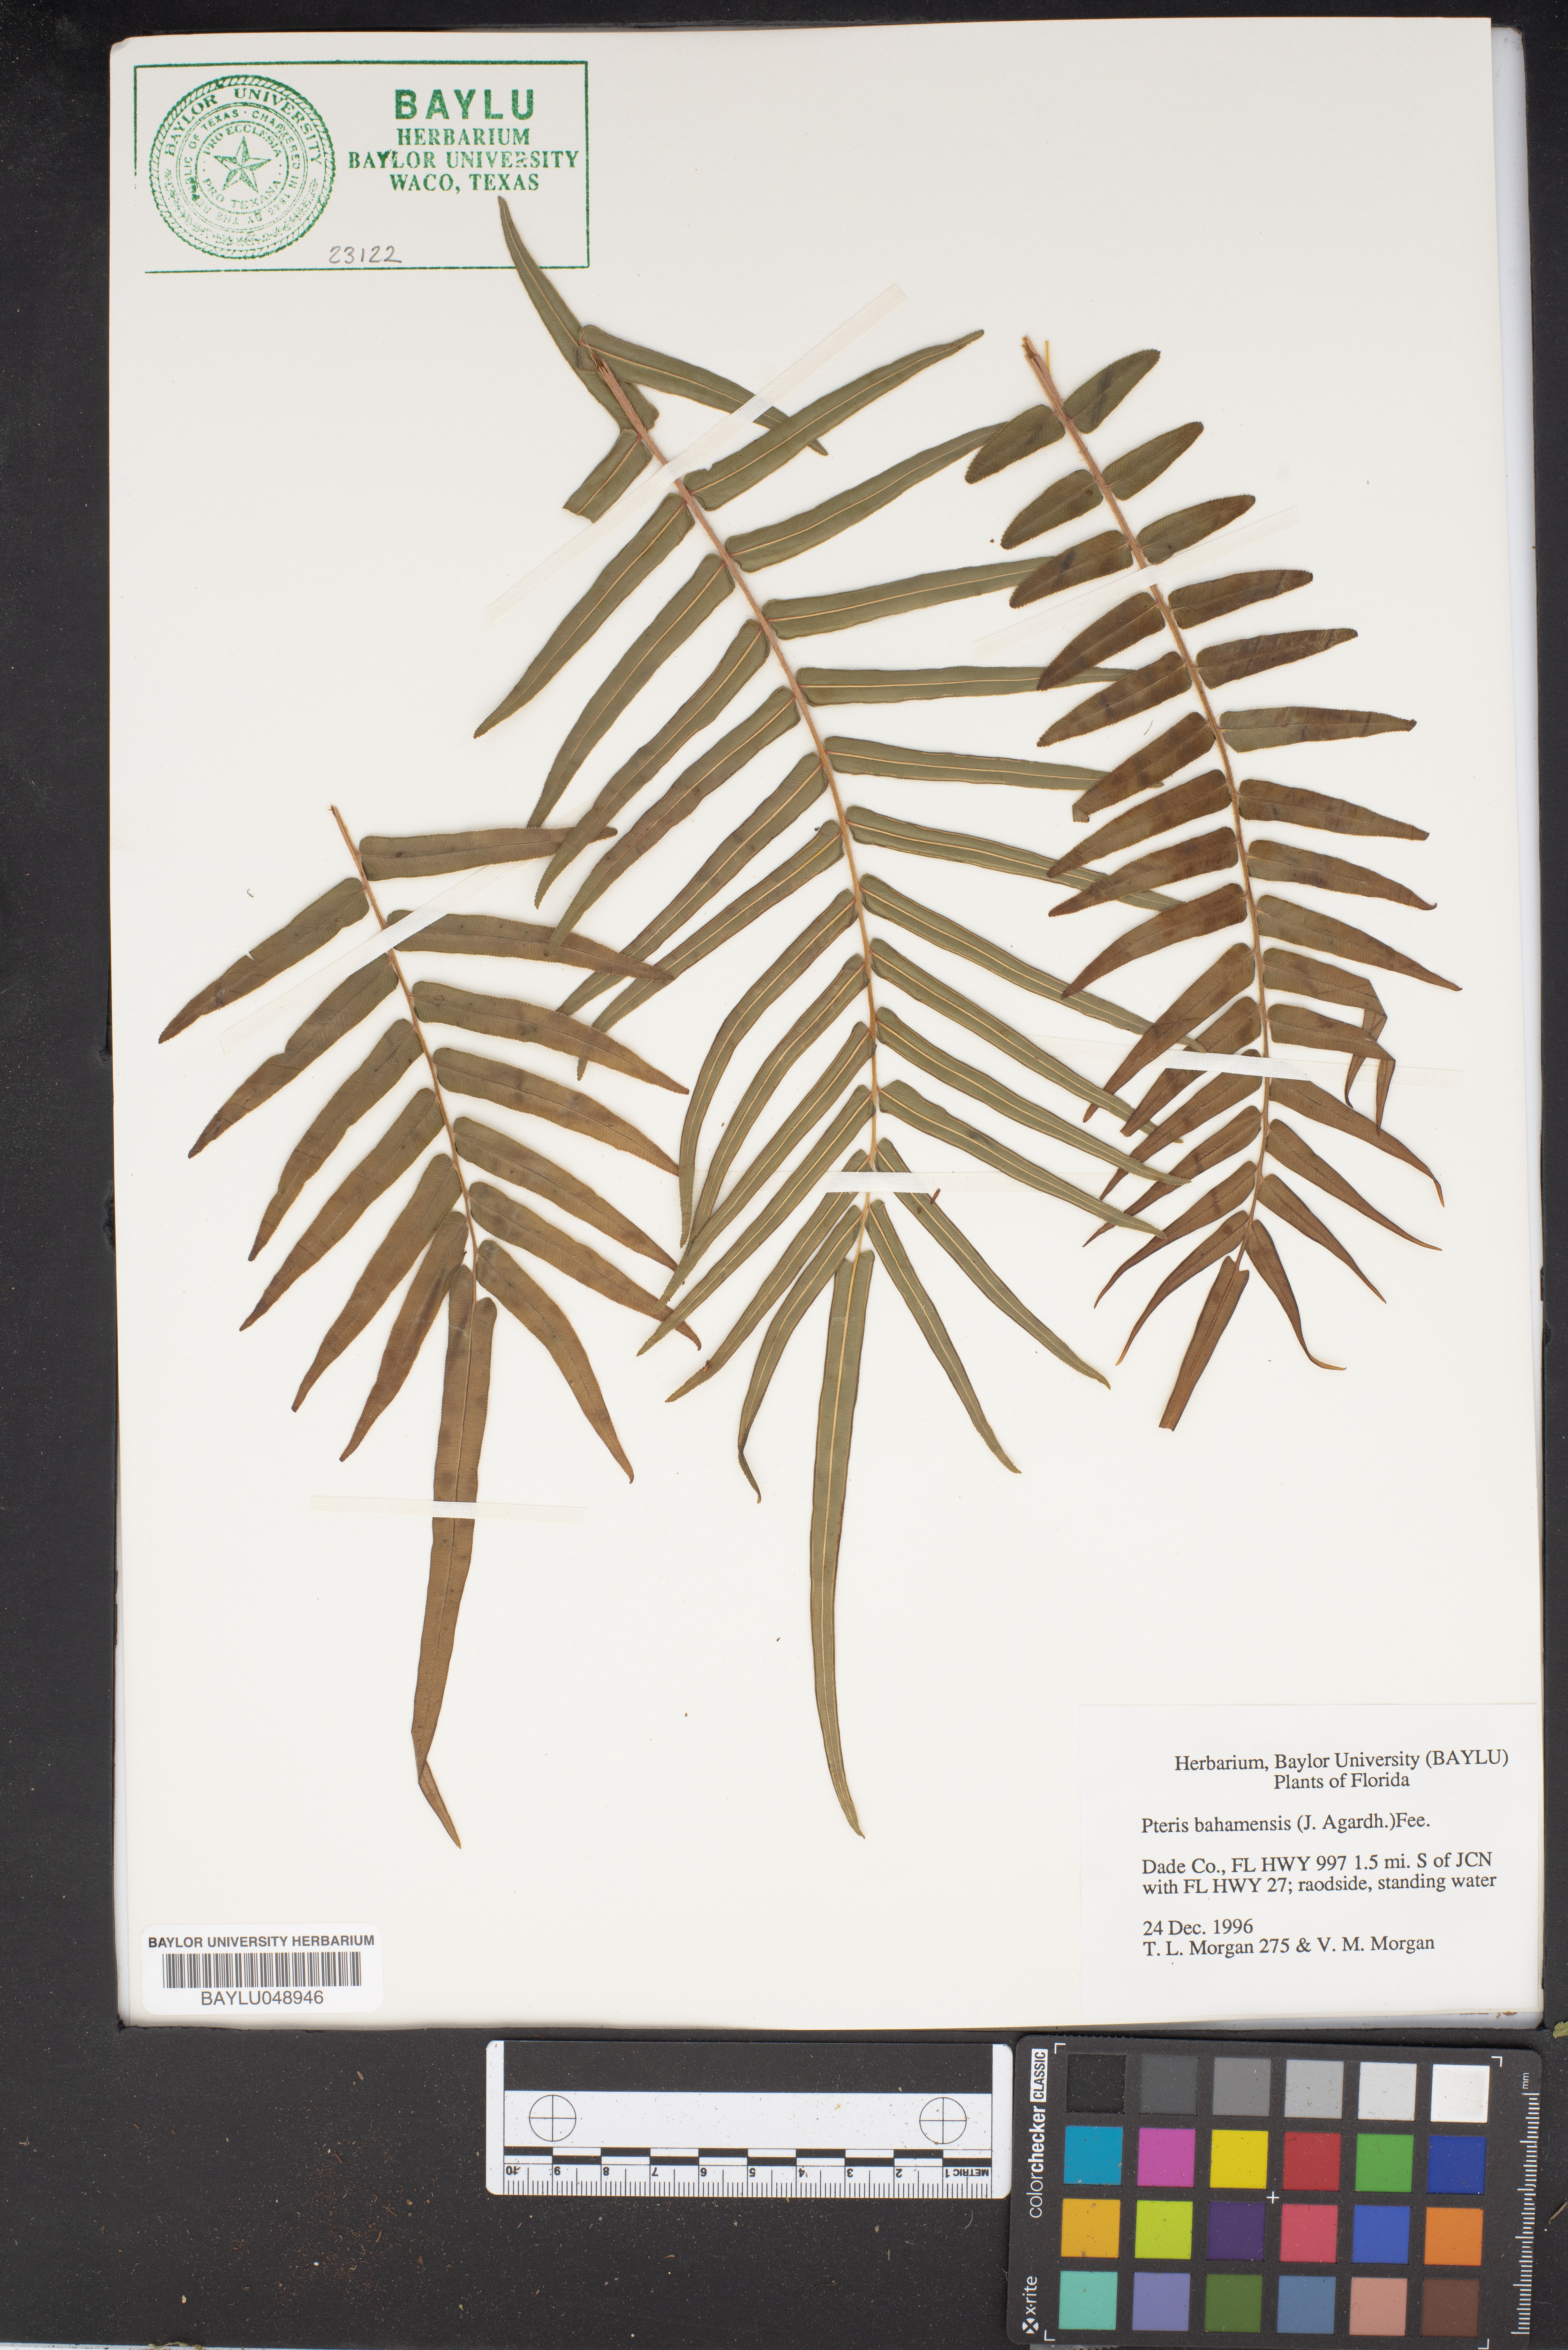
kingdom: Plantae
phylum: Tracheophyta
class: Polypodiopsida
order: Polypodiales
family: Pteridaceae
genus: Pteris
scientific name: Pteris bahamensis
